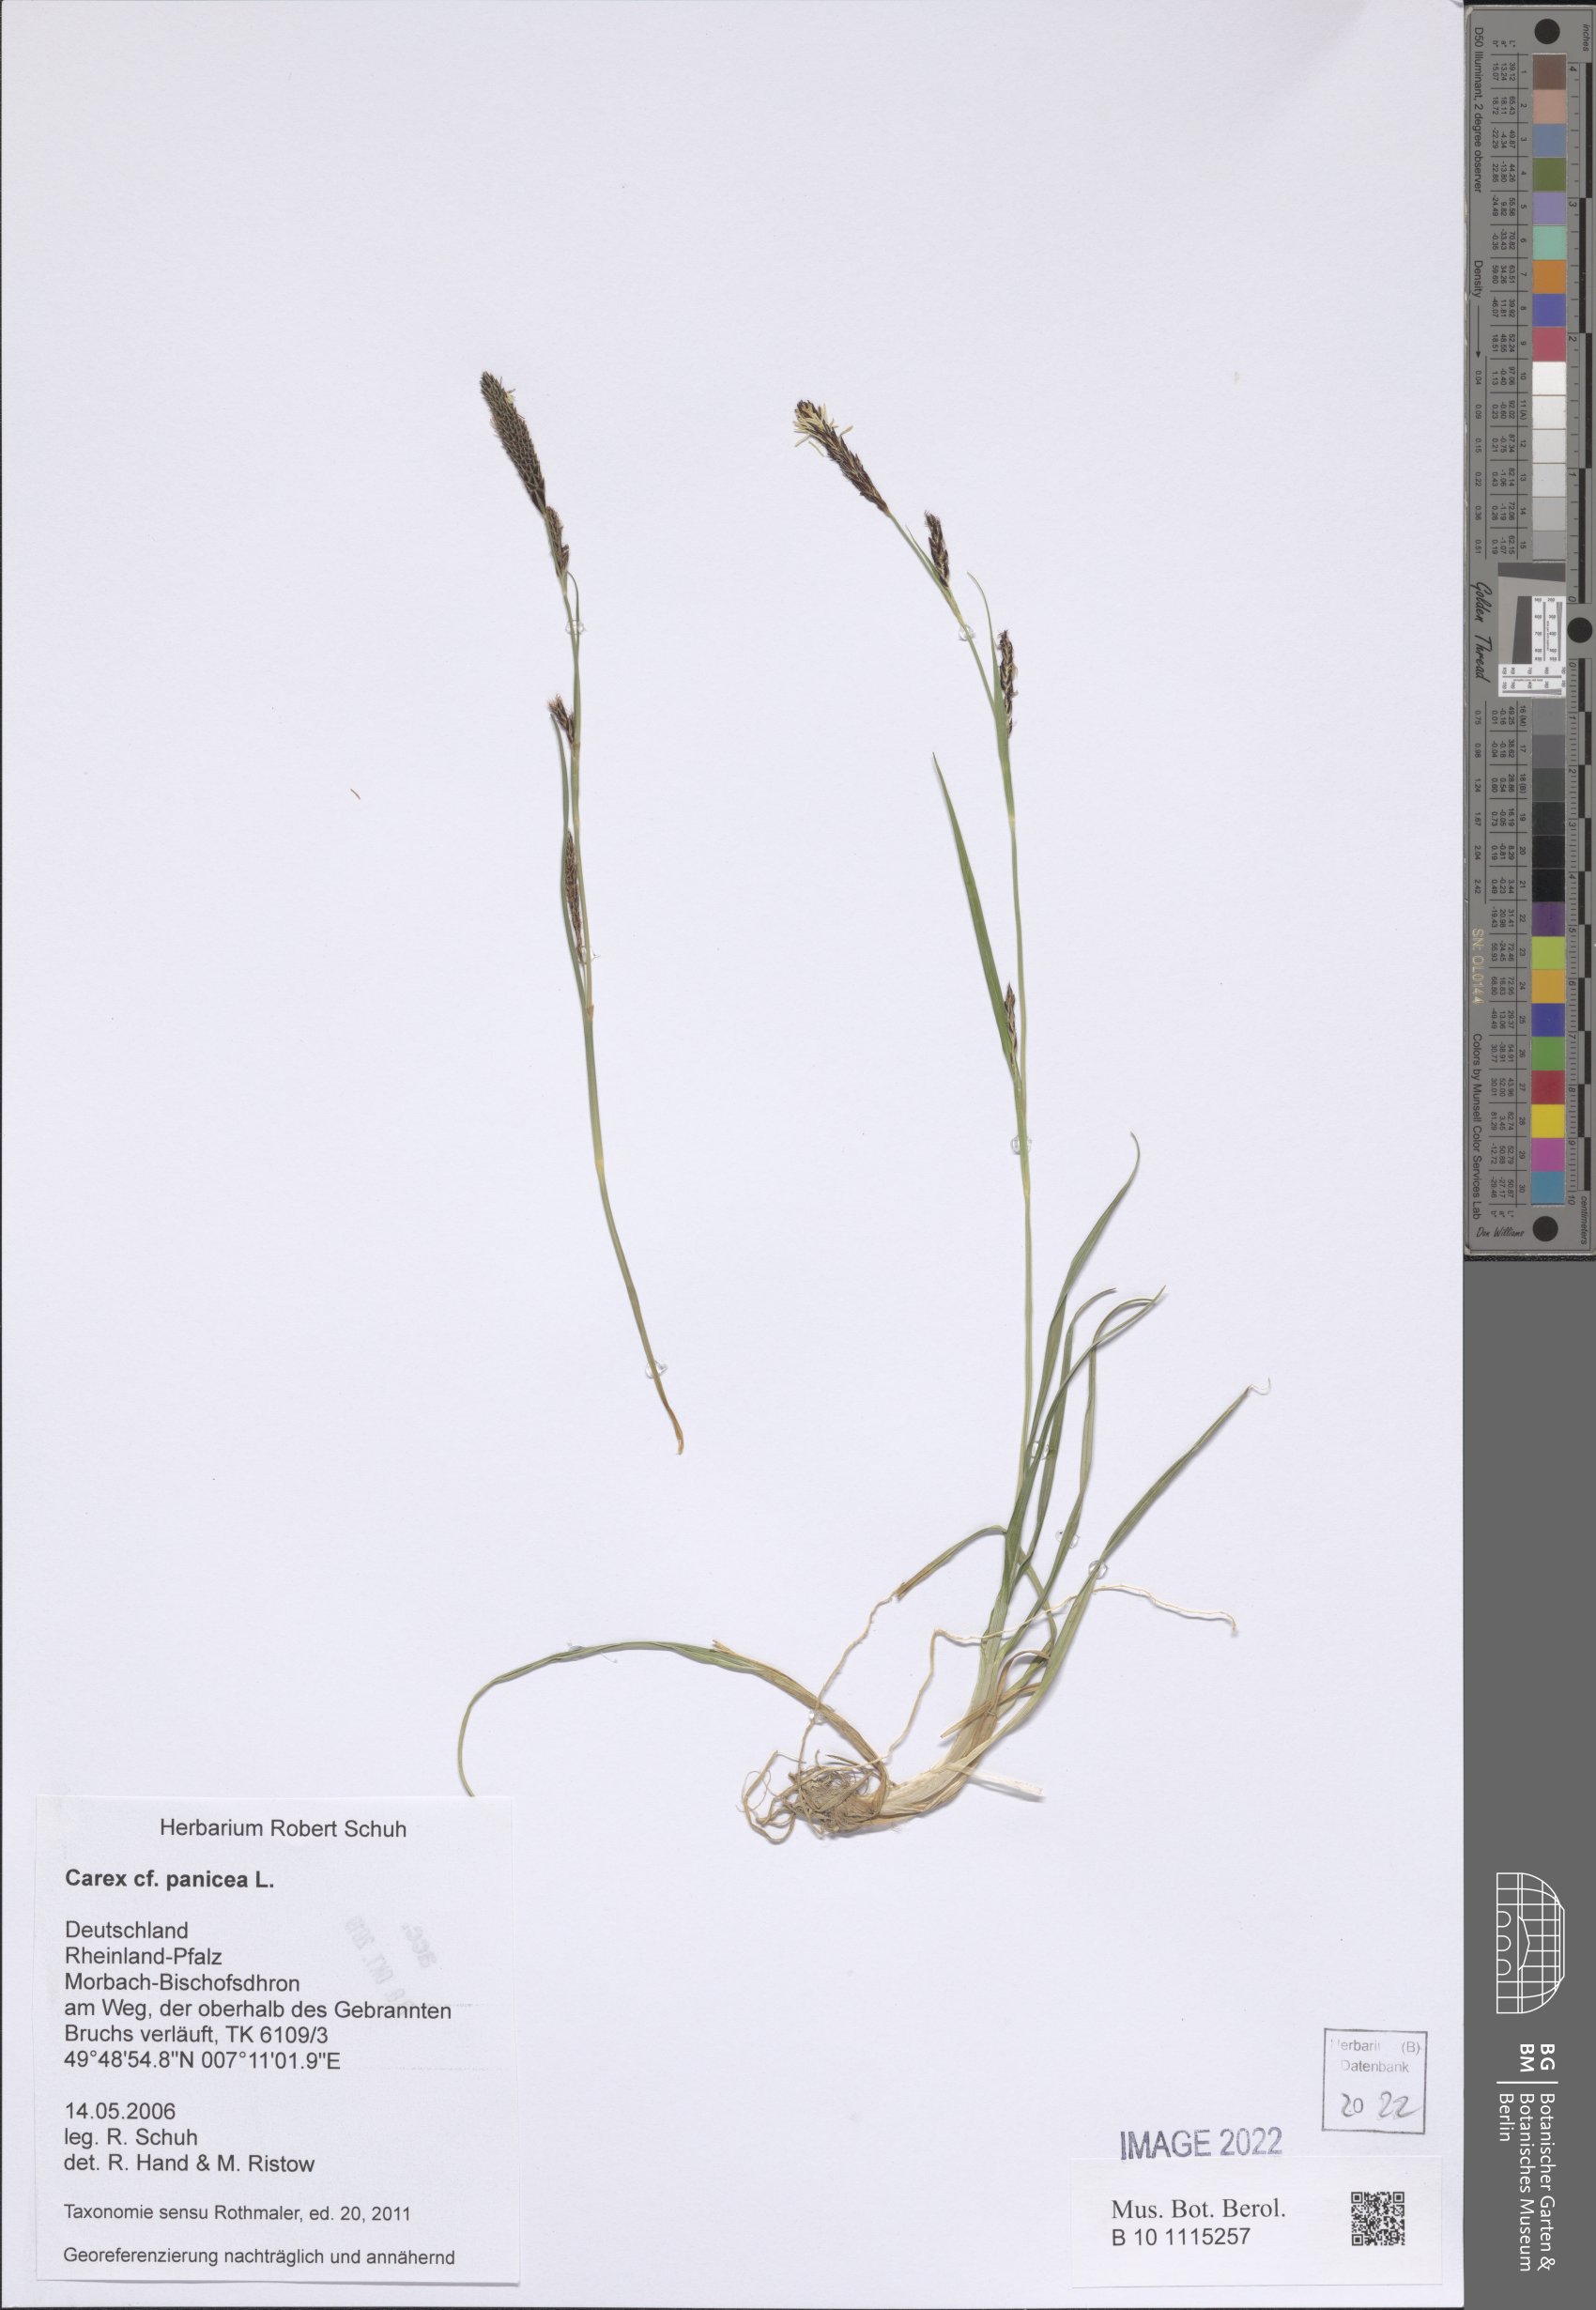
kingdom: Plantae
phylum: Tracheophyta
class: Liliopsida
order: Poales
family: Cyperaceae
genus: Carex
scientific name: Carex panicea
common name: Carnation sedge
